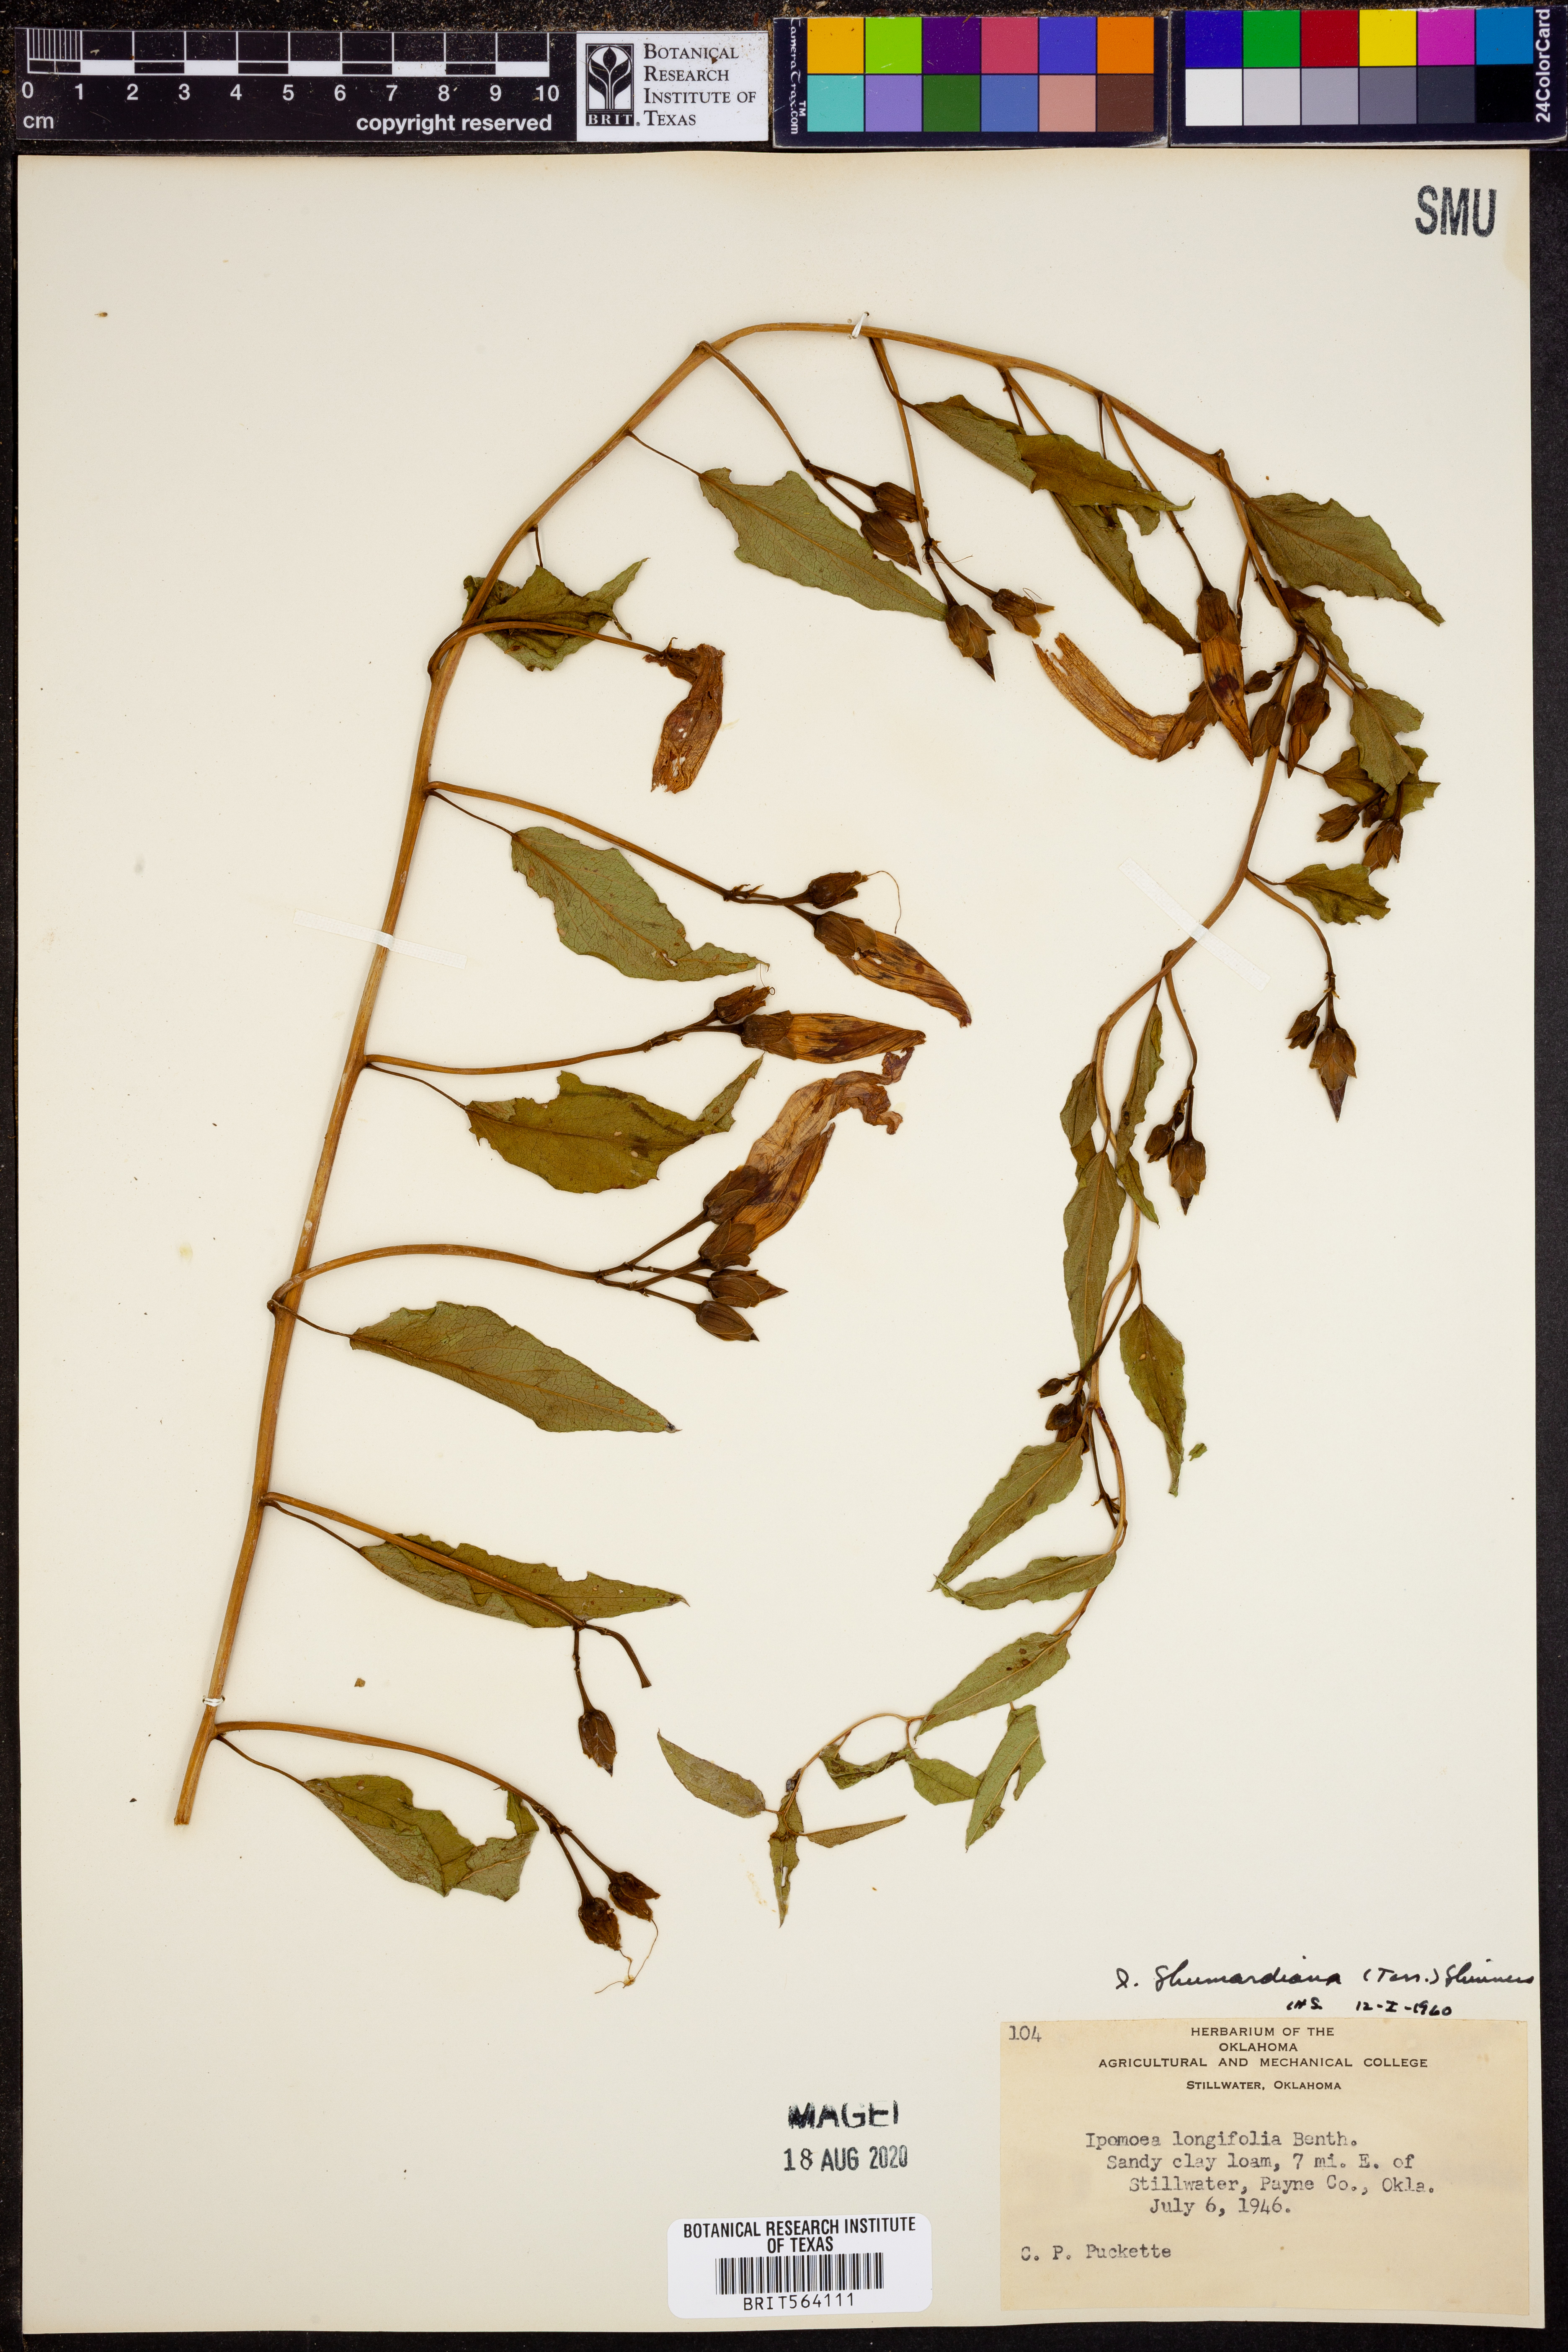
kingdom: Plantae
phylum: Tracheophyta
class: Magnoliopsida
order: Solanales
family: Convolvulaceae
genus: Ipomoea
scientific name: Ipomoea shumardiana
